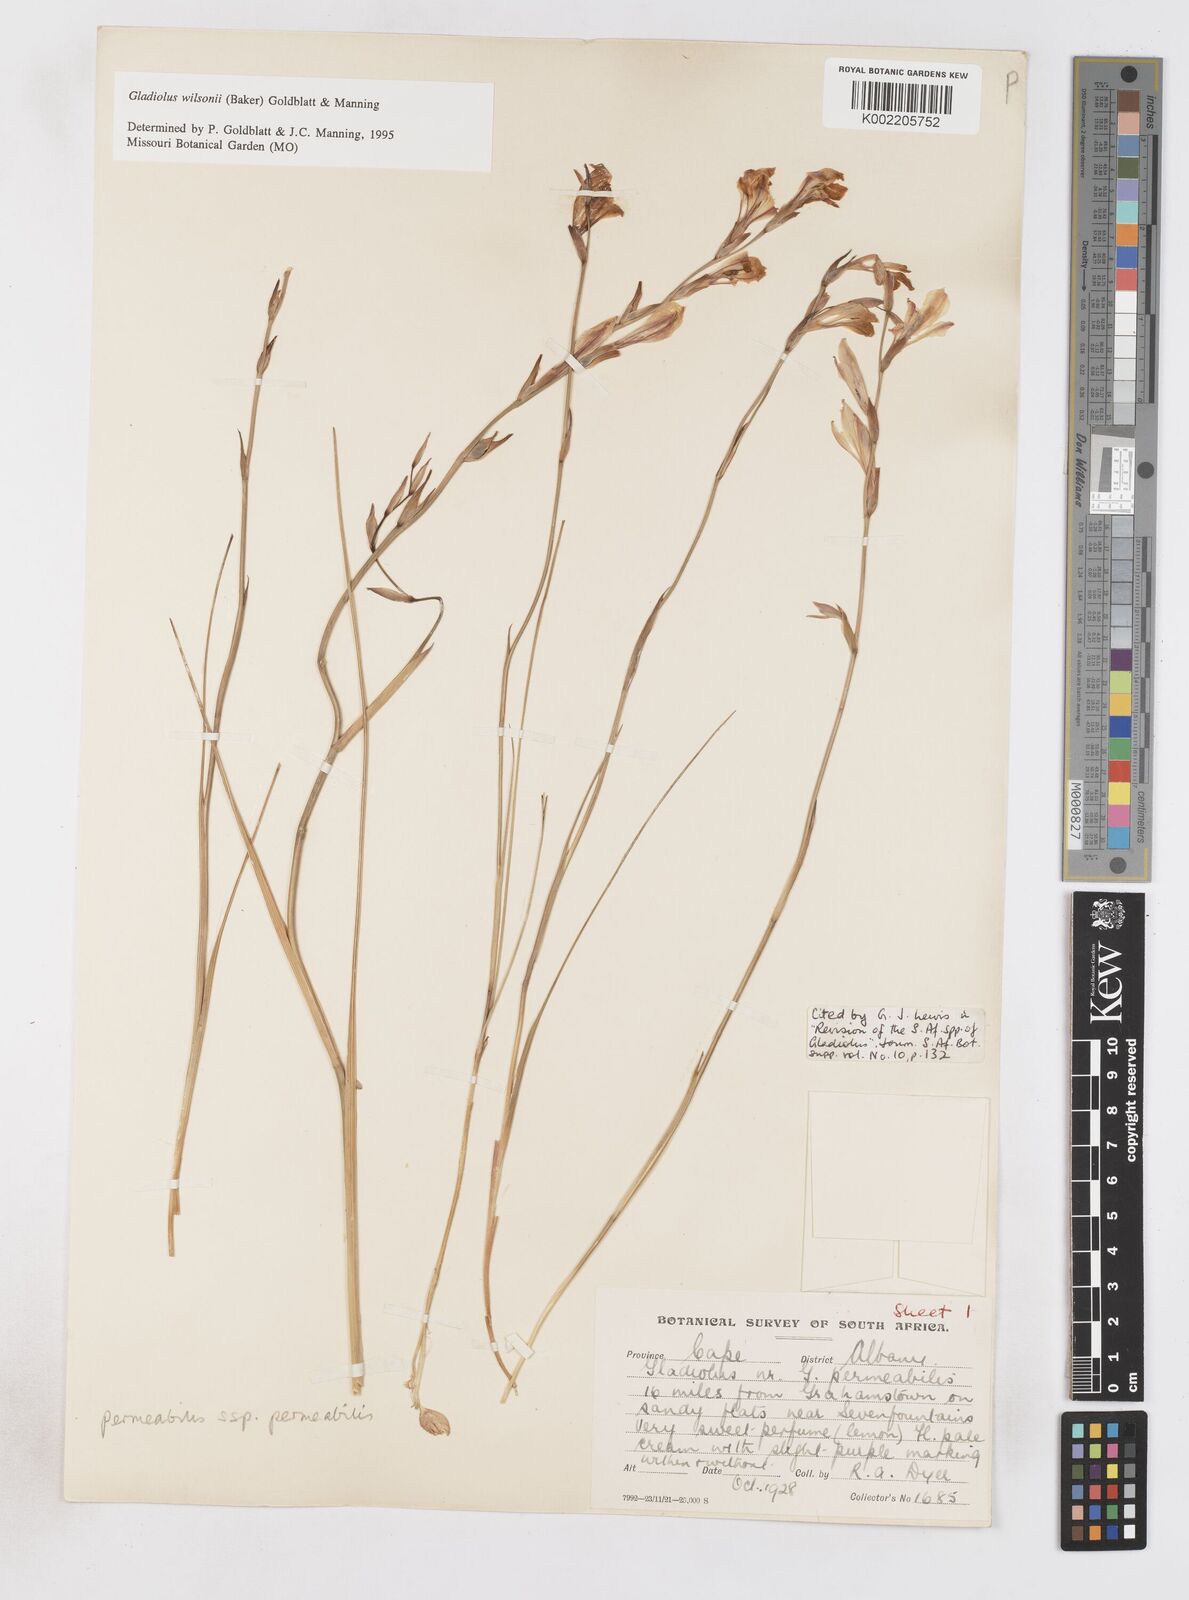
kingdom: Plantae
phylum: Tracheophyta
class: Liliopsida
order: Asparagales
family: Iridaceae
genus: Gladiolus
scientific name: Gladiolus wilsonii
